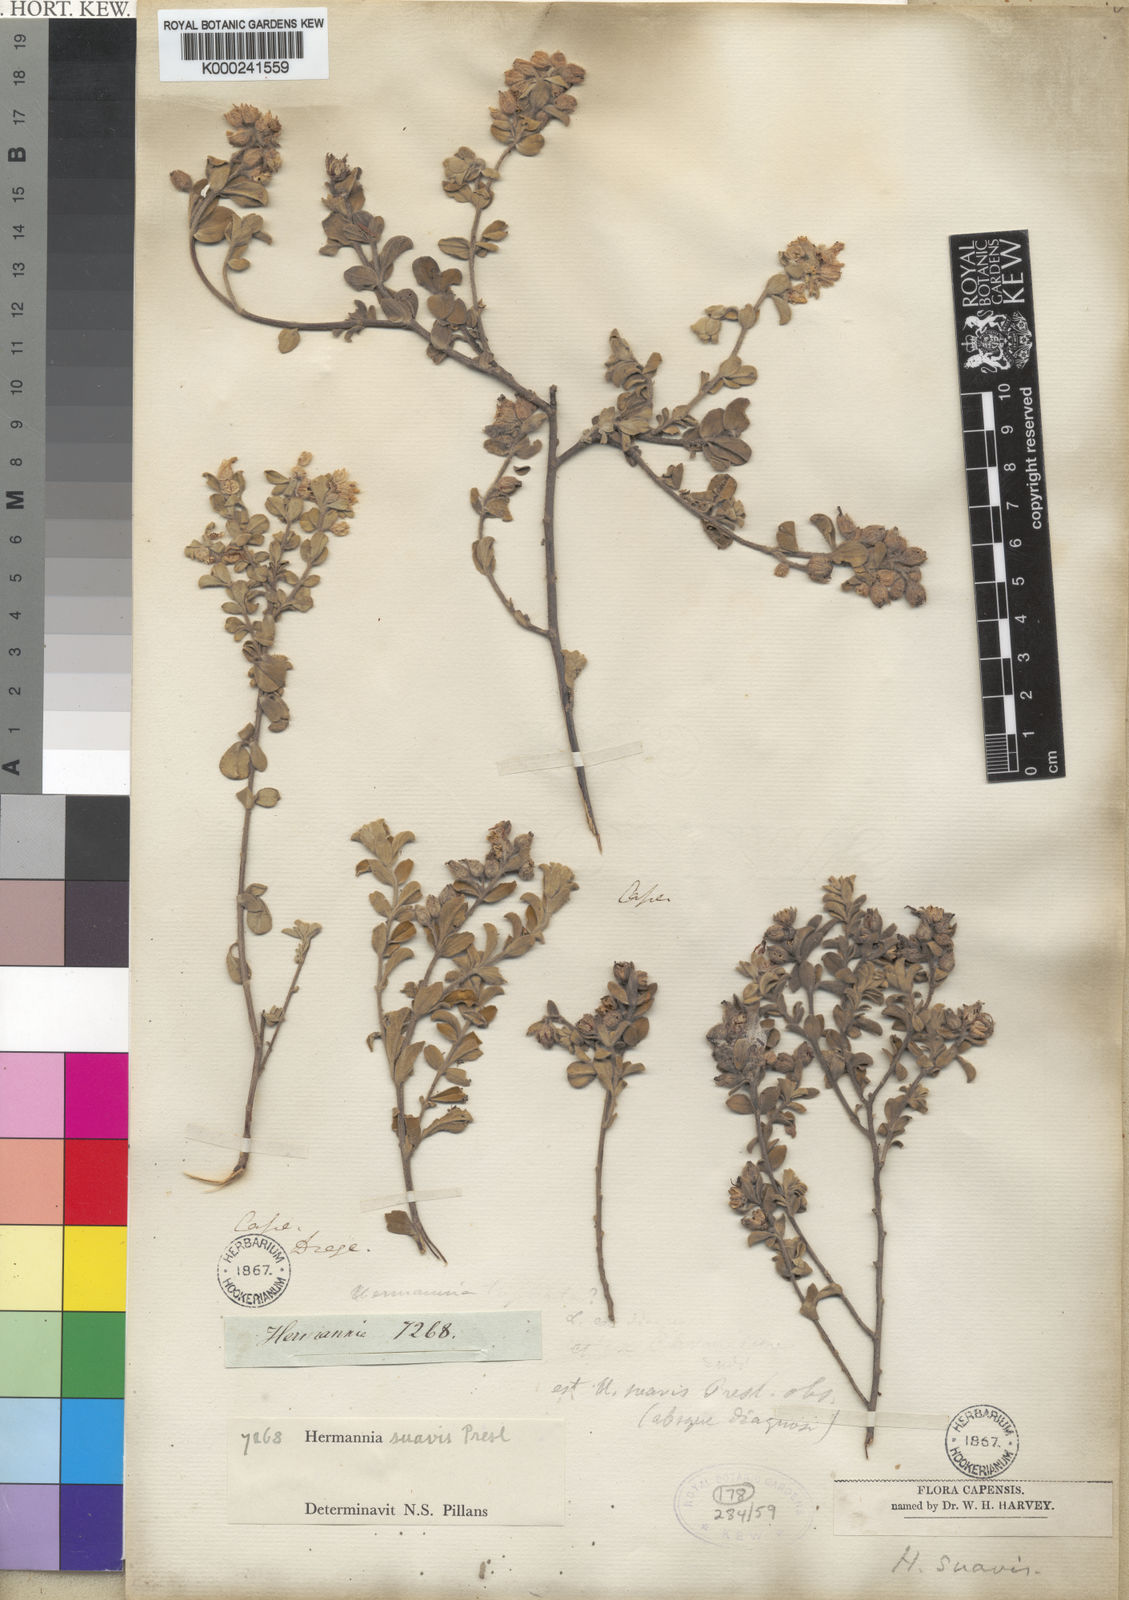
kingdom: Plantae
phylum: Tracheophyta
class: Magnoliopsida
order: Malvales
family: Malvaceae
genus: Hermannia
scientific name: Hermannia
